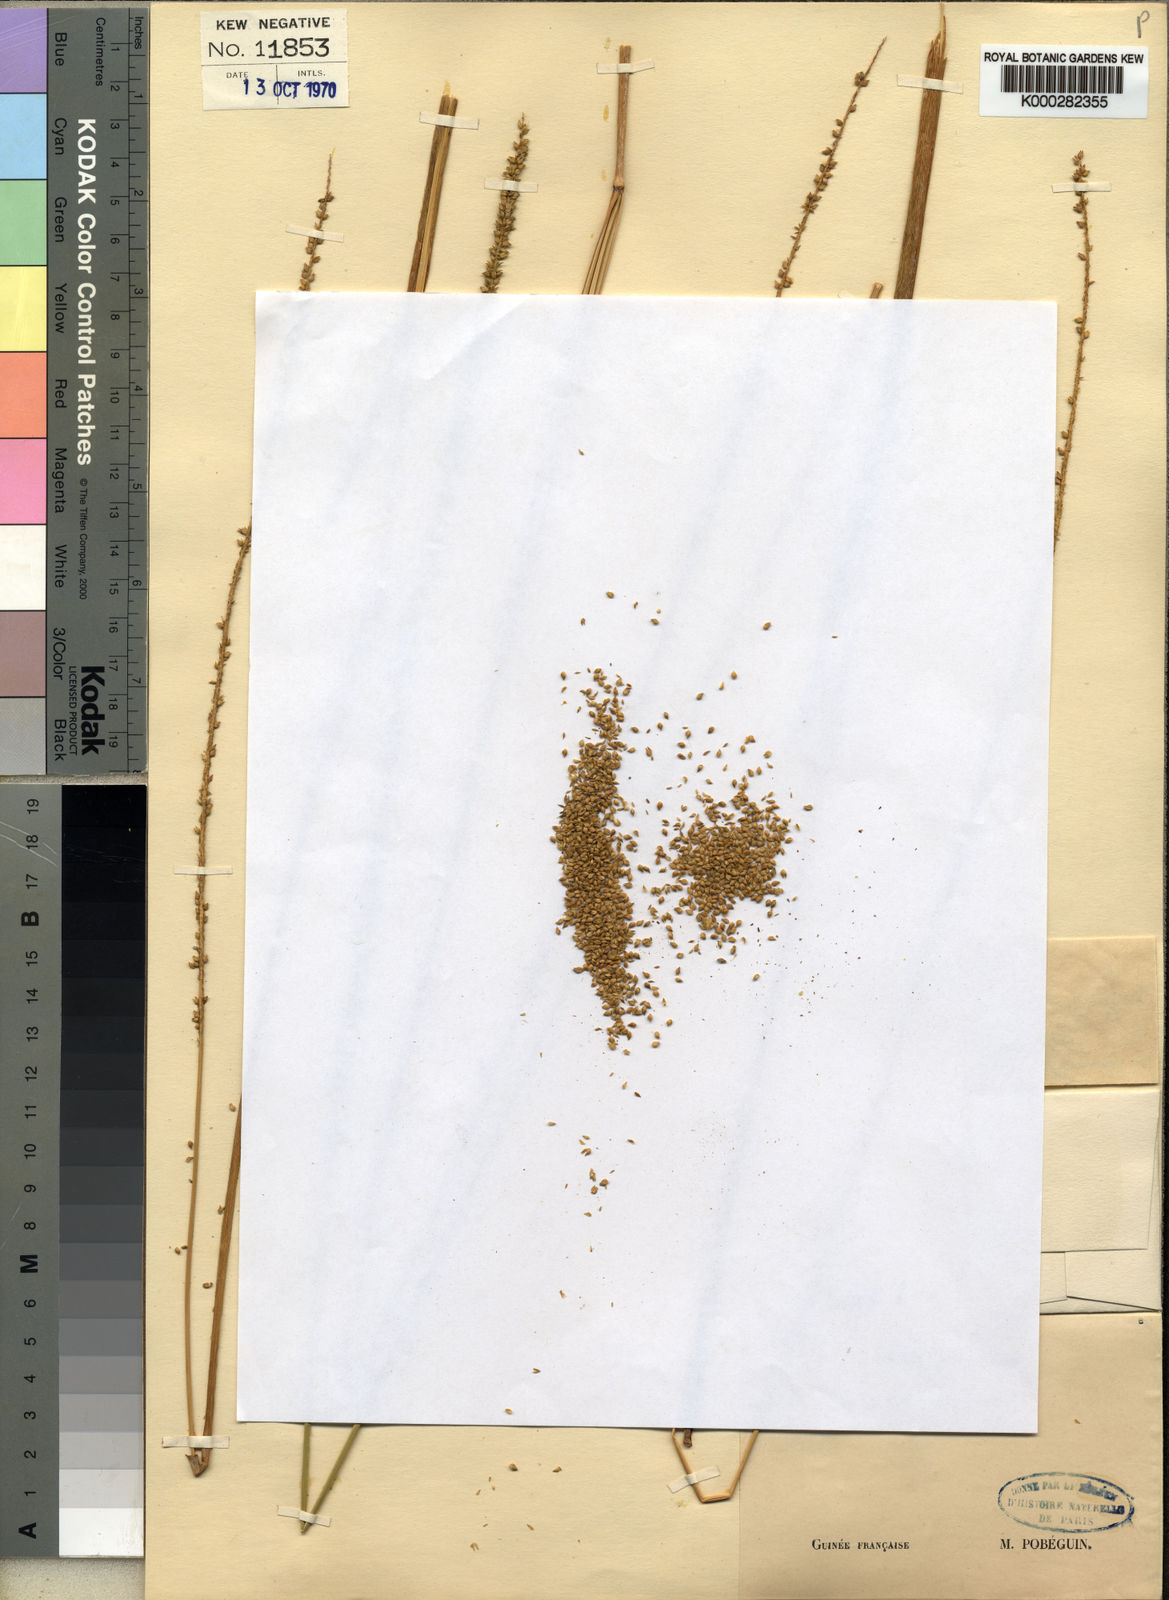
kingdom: Plantae
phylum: Tracheophyta
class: Liliopsida
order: Poales
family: Poaceae
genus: Sacciolepis
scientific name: Sacciolepis cymbiandra
